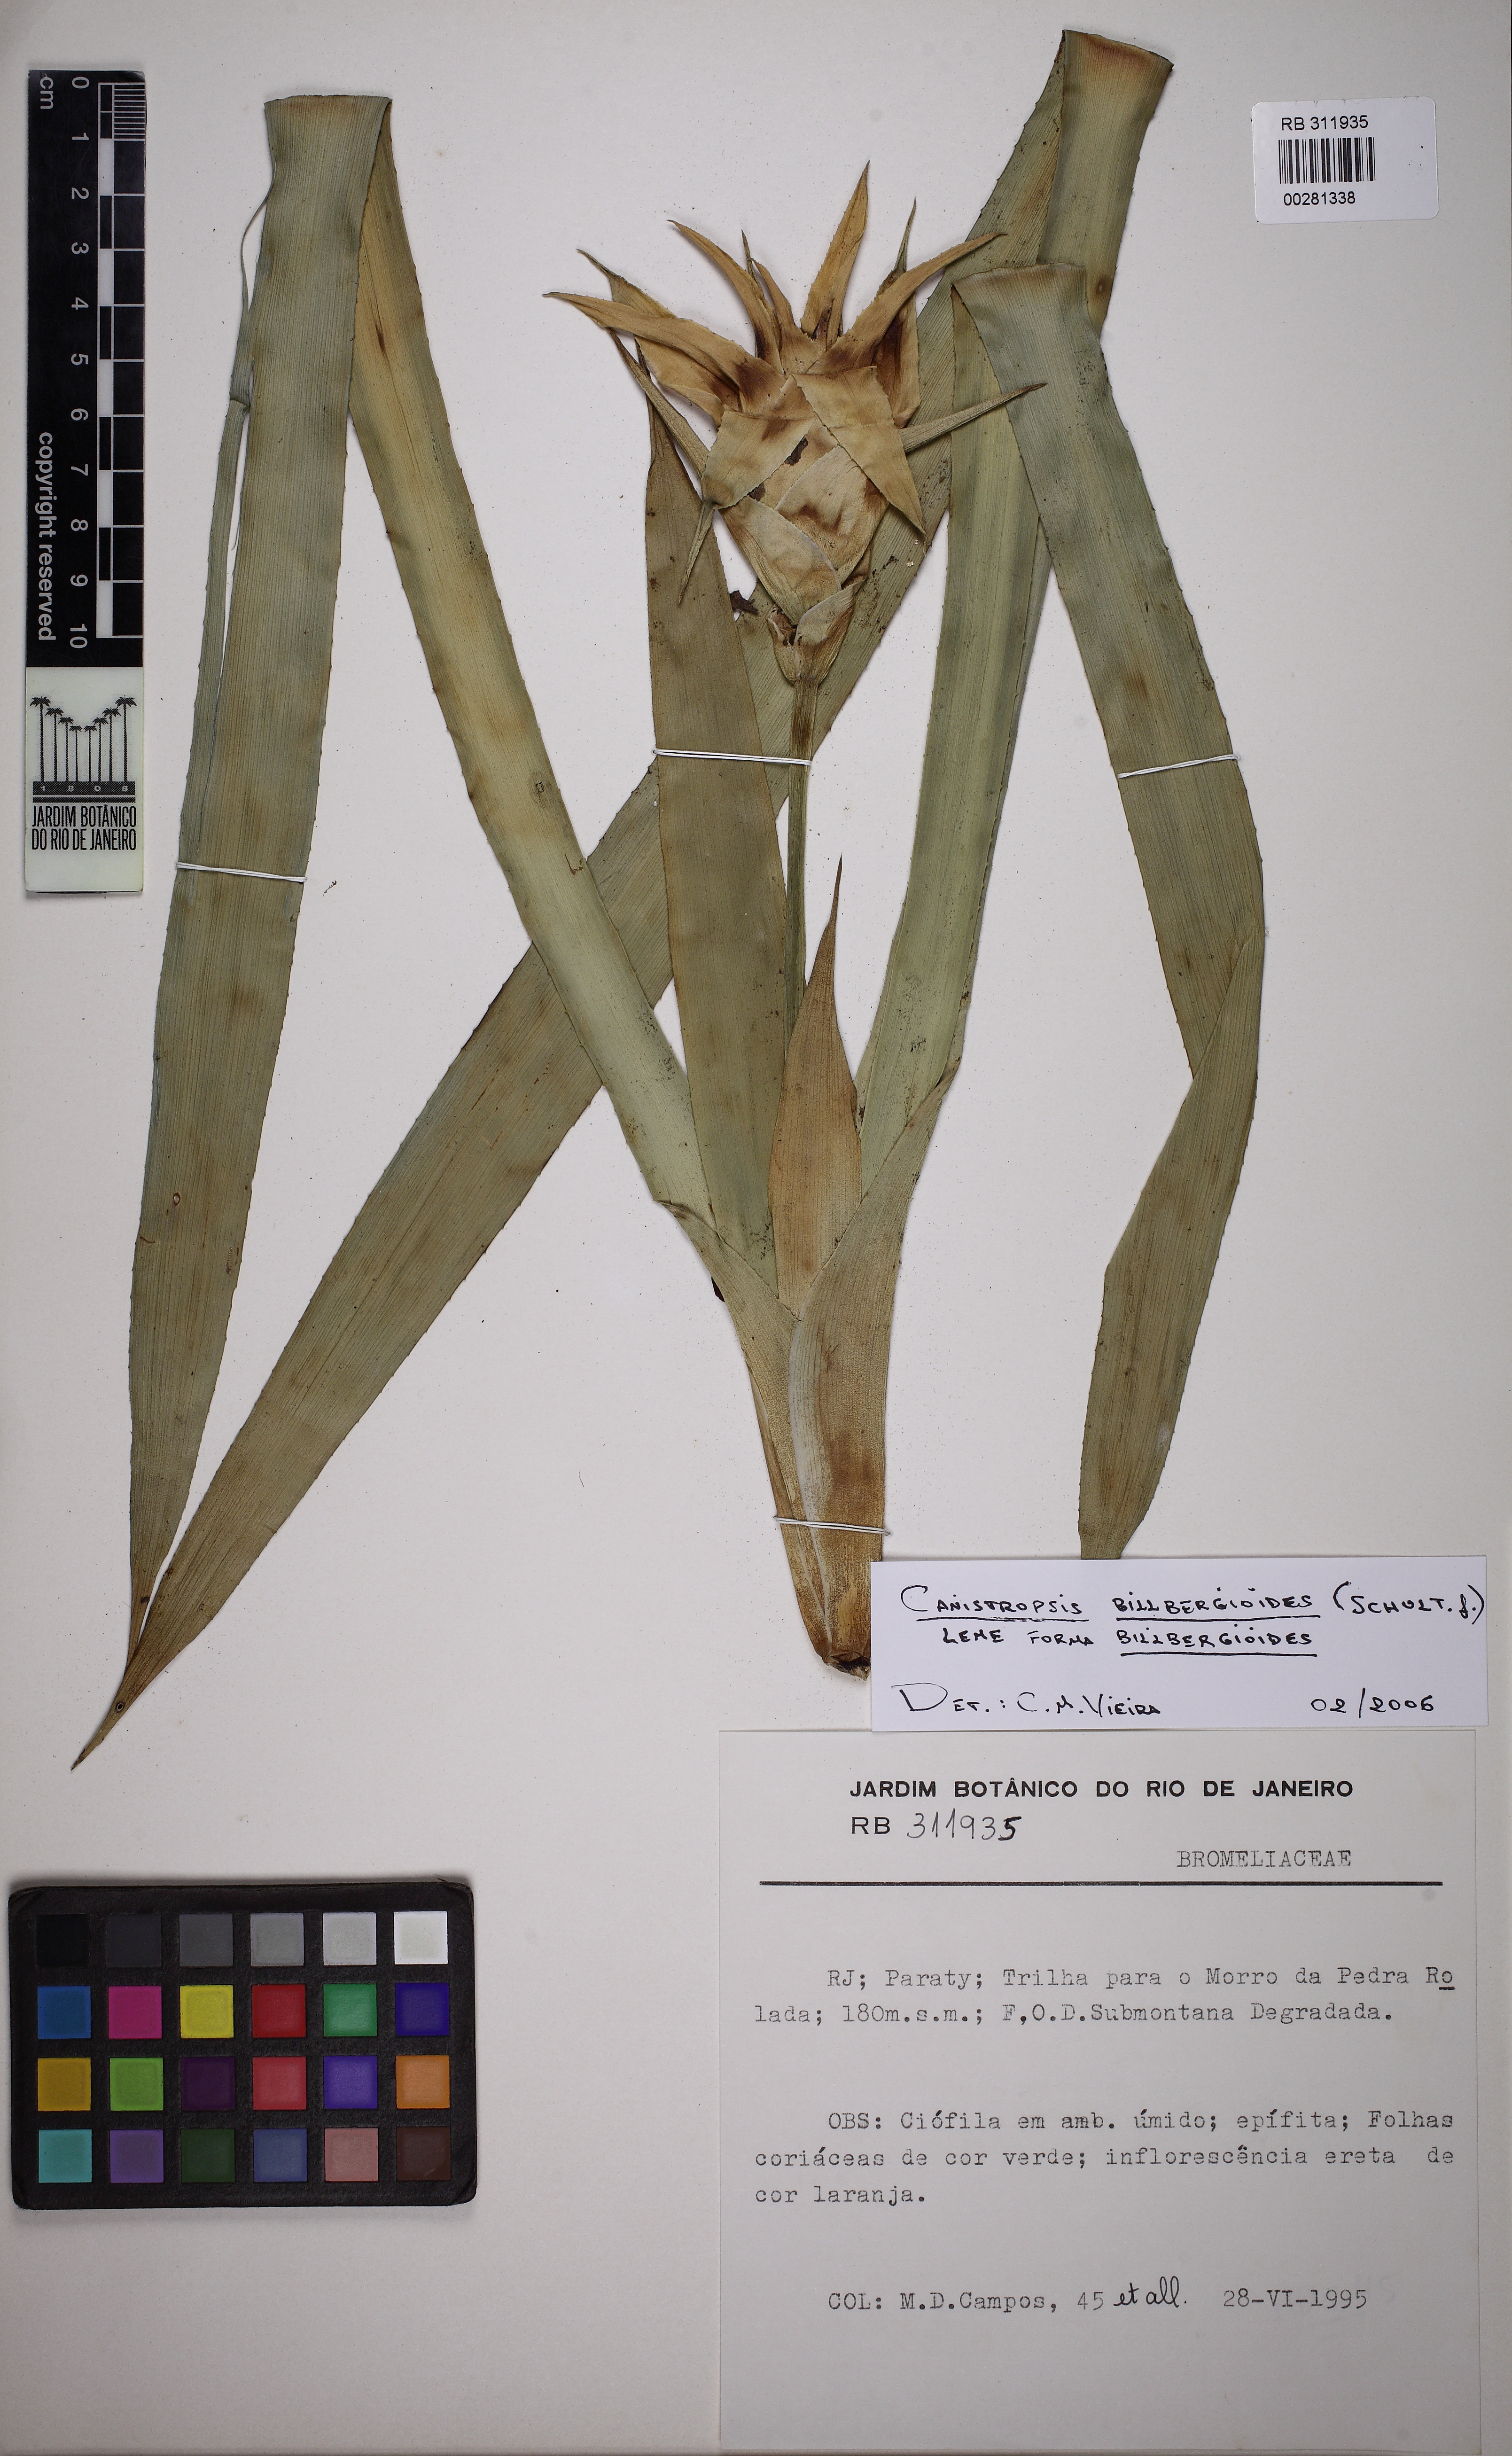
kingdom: Plantae
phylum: Tracheophyta
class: Liliopsida
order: Poales
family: Bromeliaceae
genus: Canistropsis
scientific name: Canistropsis billbergioides
